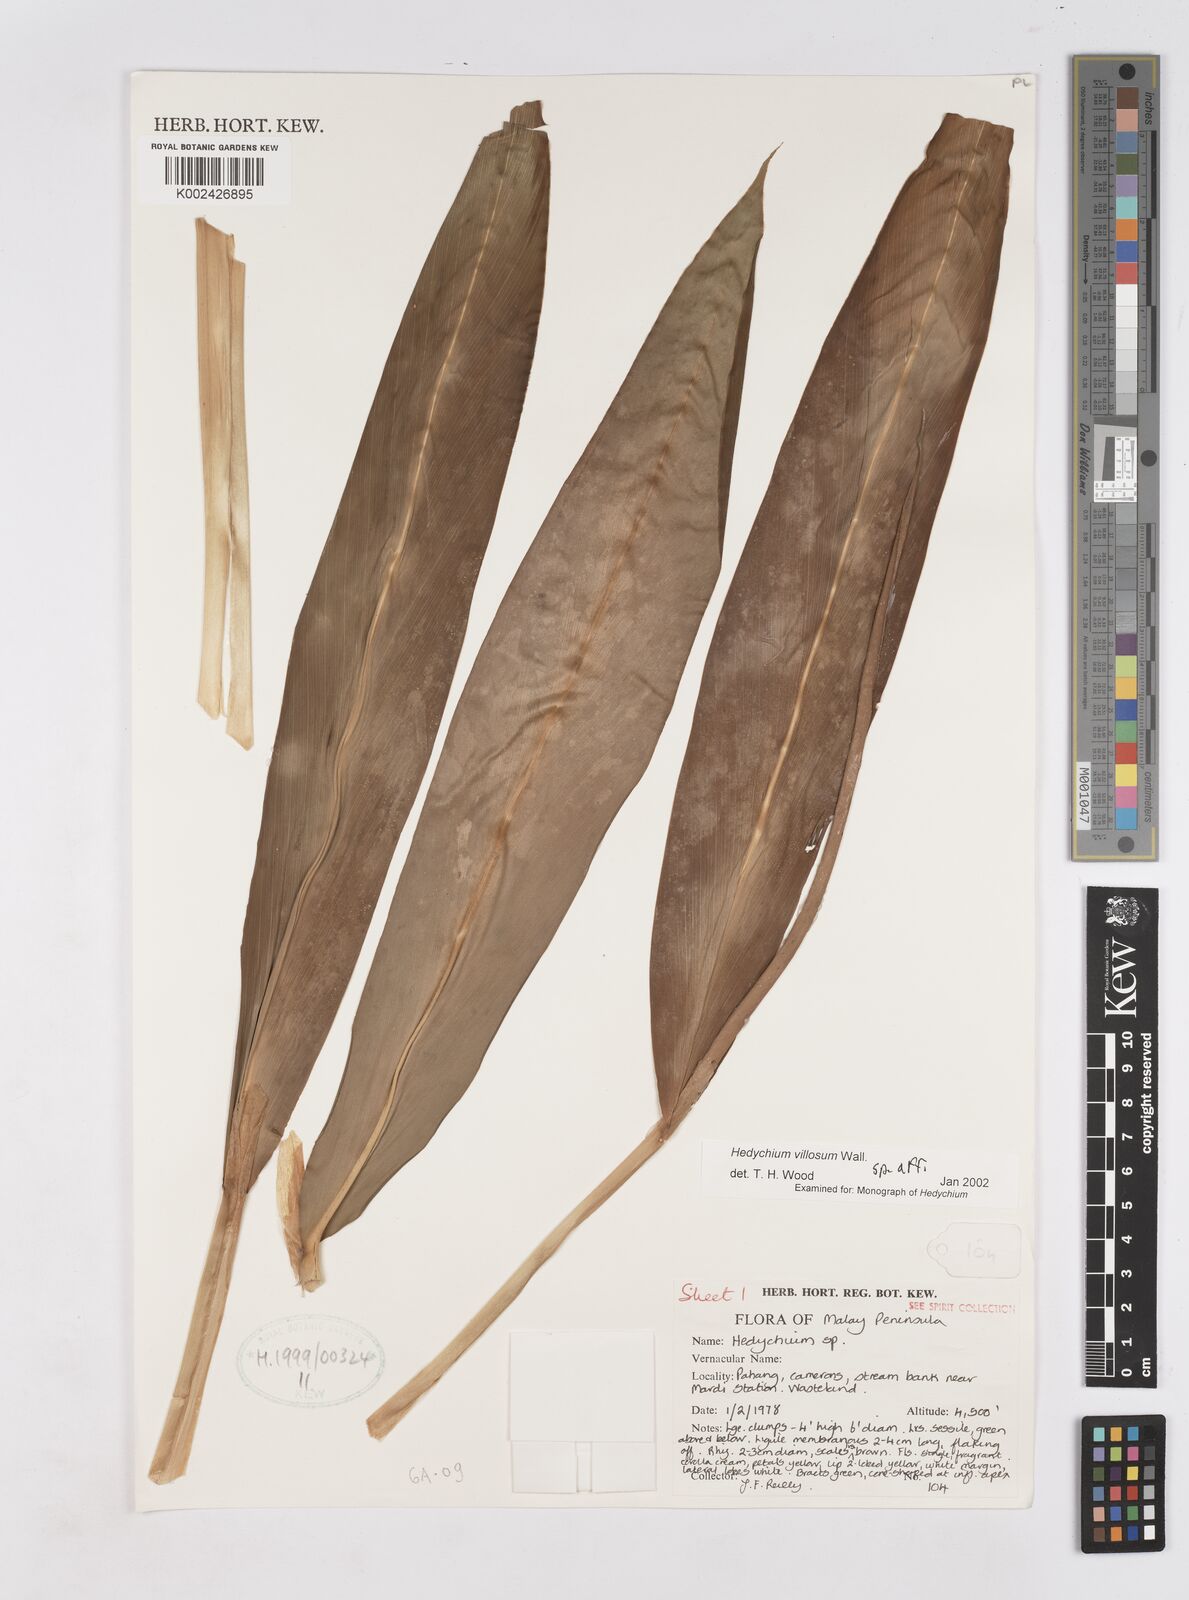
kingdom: Plantae
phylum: Tracheophyta
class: Liliopsida
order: Zingiberales
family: Zingiberaceae
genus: Hedychium
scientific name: Hedychium villosum
